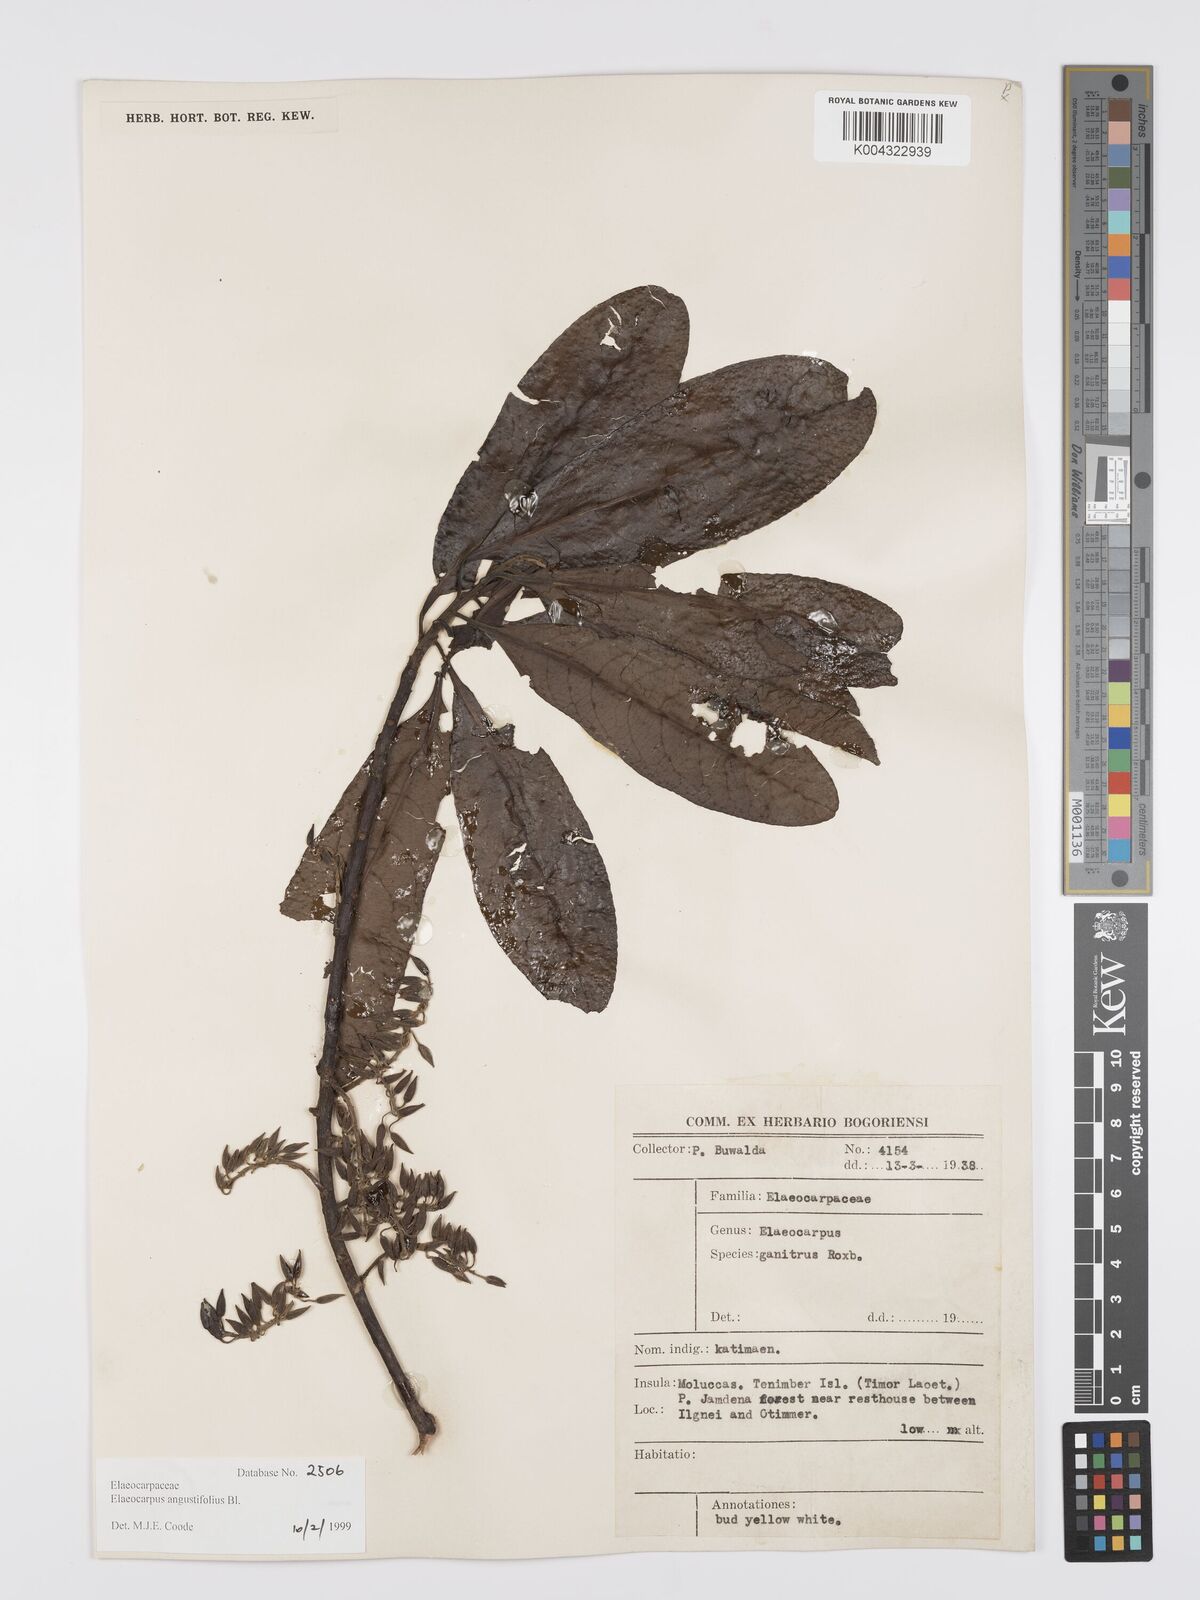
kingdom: Plantae
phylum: Tracheophyta
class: Magnoliopsida
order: Oxalidales
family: Elaeocarpaceae
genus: Elaeocarpus
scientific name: Elaeocarpus sphaericus
